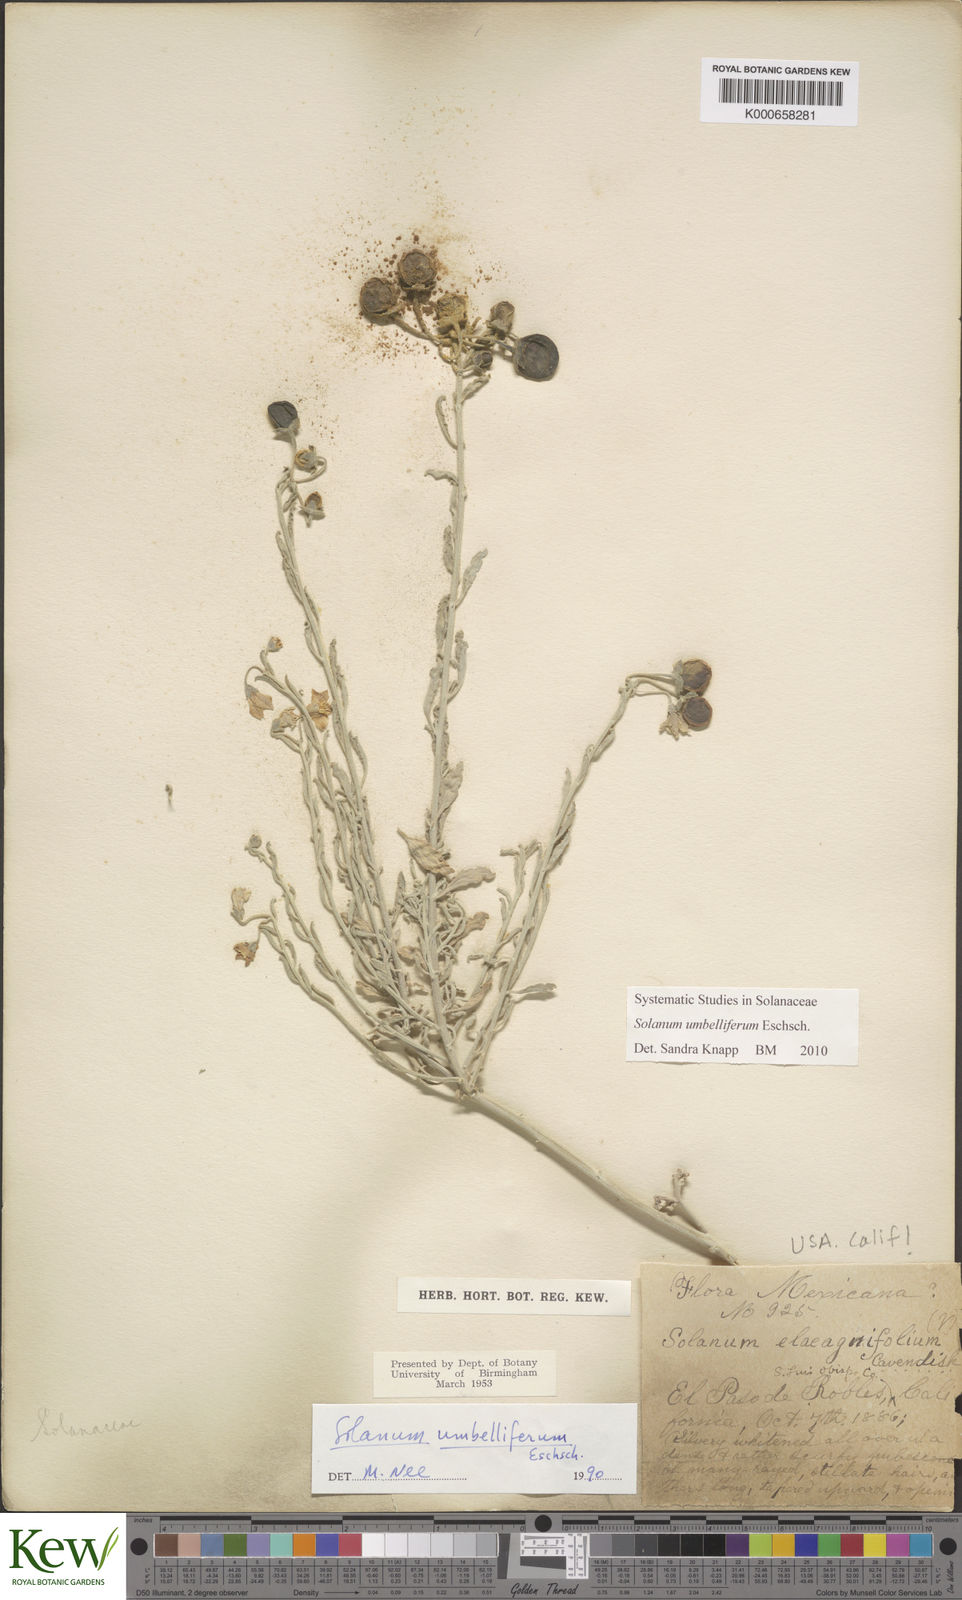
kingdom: Plantae
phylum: Tracheophyta
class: Magnoliopsida
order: Solanales
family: Solanaceae
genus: Solanum
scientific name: Solanum umbelliferum
